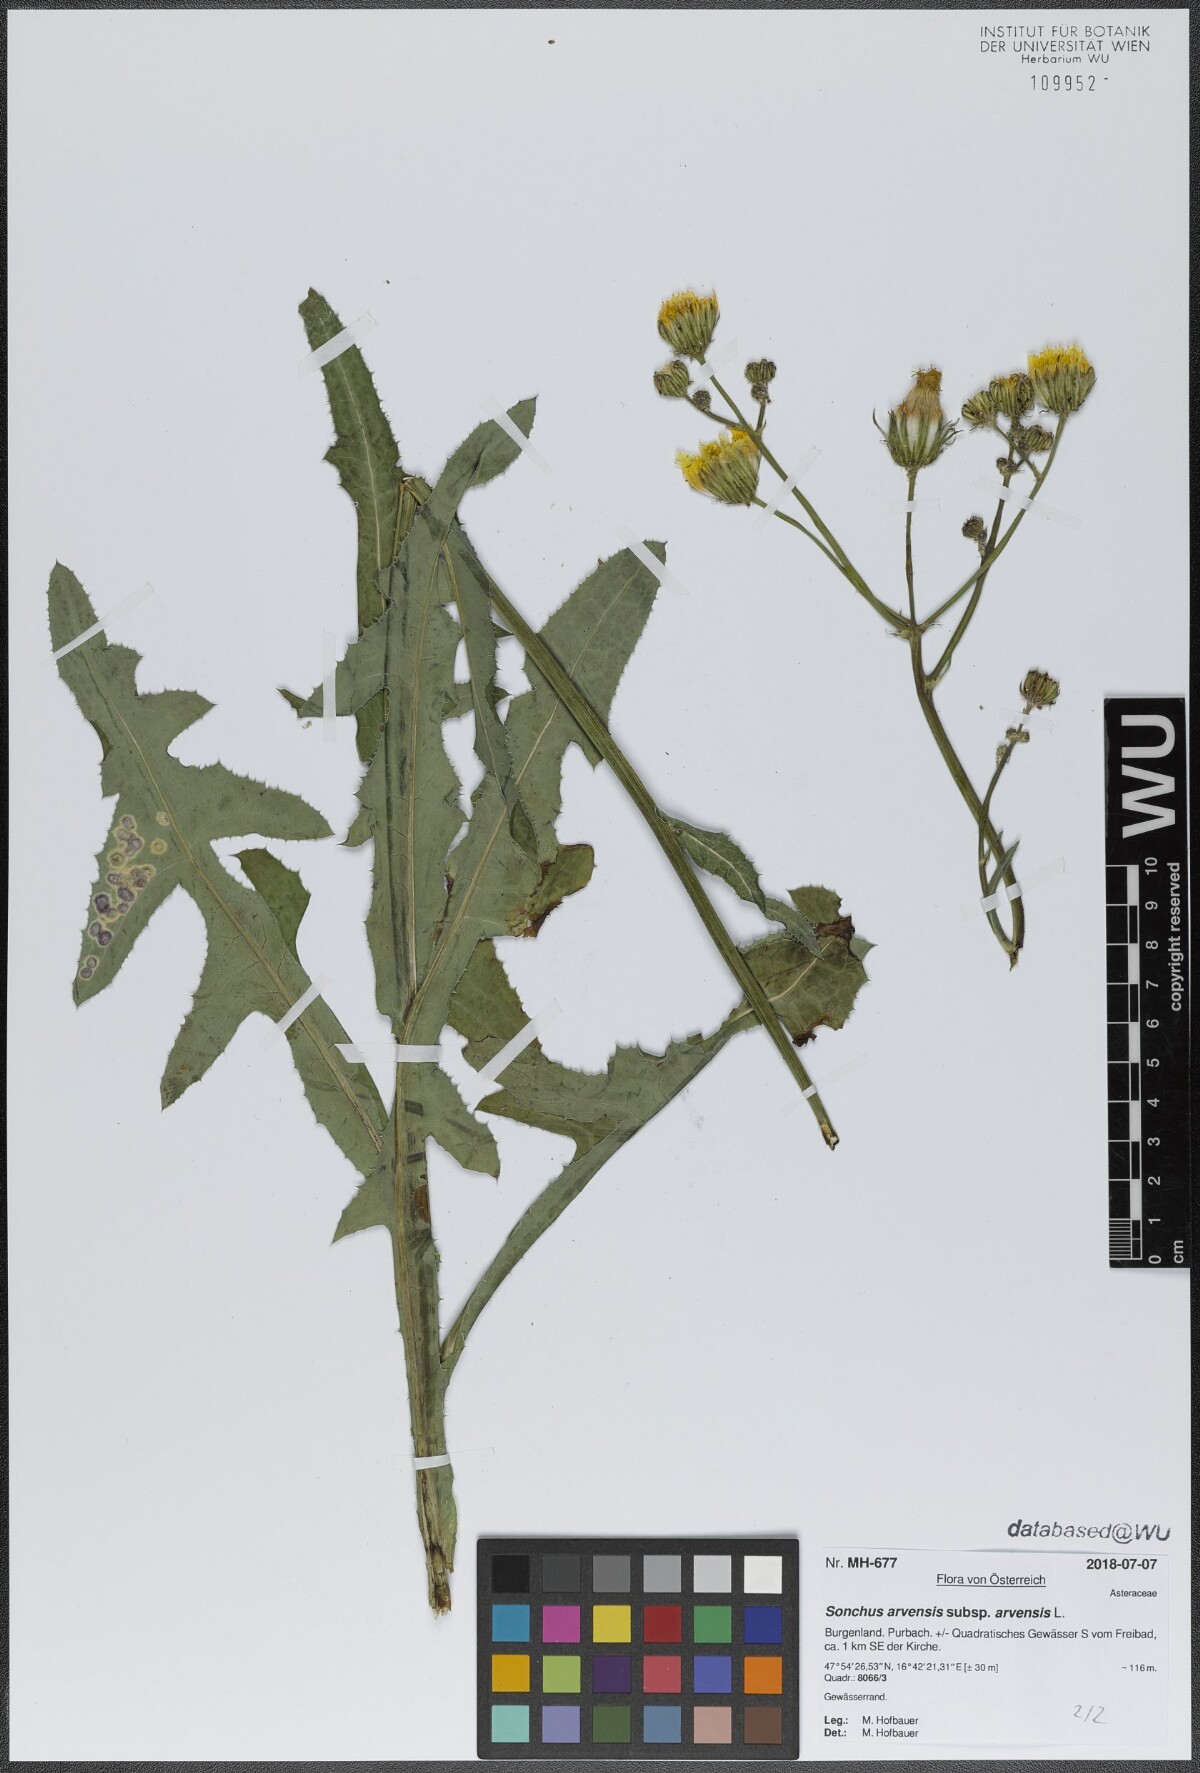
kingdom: Plantae
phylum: Tracheophyta
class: Magnoliopsida
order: Asterales
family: Asteraceae
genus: Sonchus
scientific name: Sonchus arvensis
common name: Perennial sow-thistle
